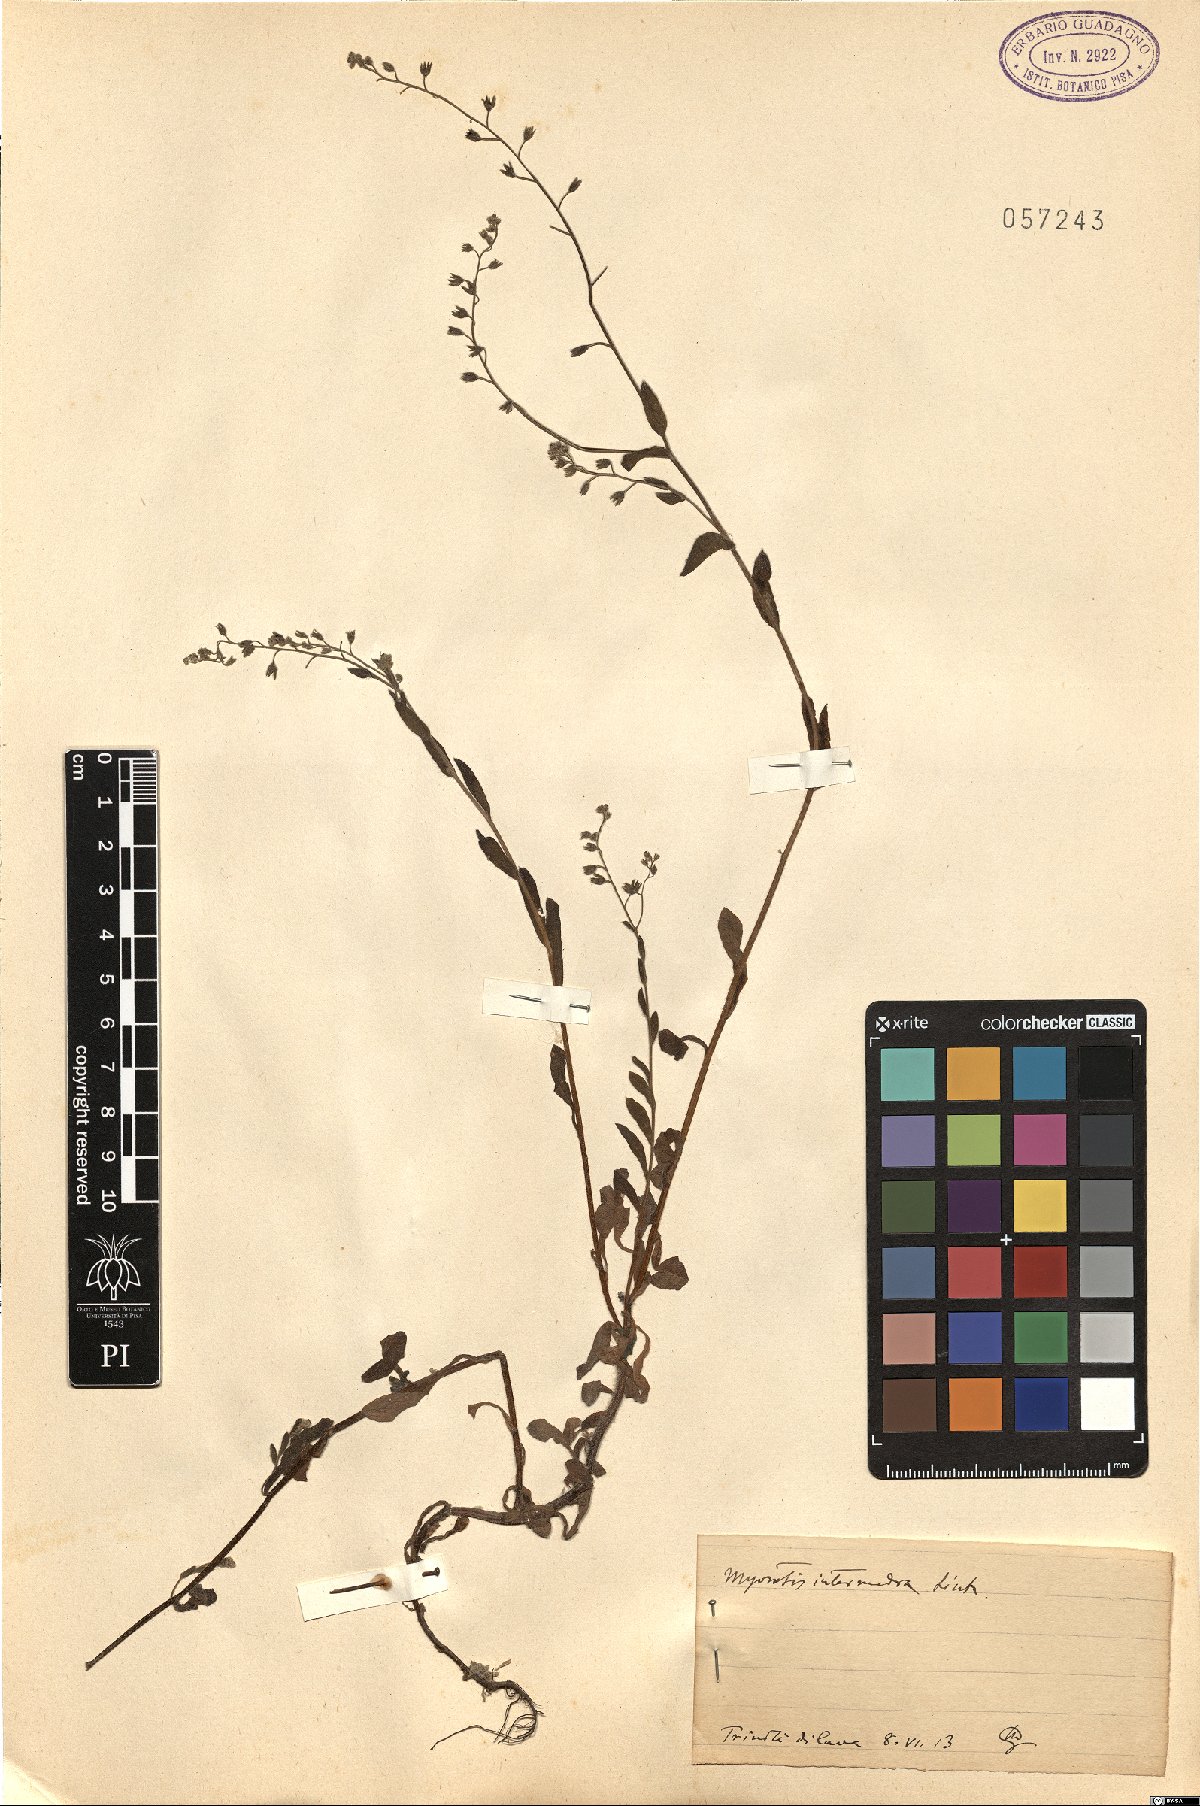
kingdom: Plantae
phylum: Tracheophyta
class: Magnoliopsida
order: Boraginales
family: Boraginaceae
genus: Myosotis
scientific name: Myosotis arvensis
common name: Field forget-me-not
